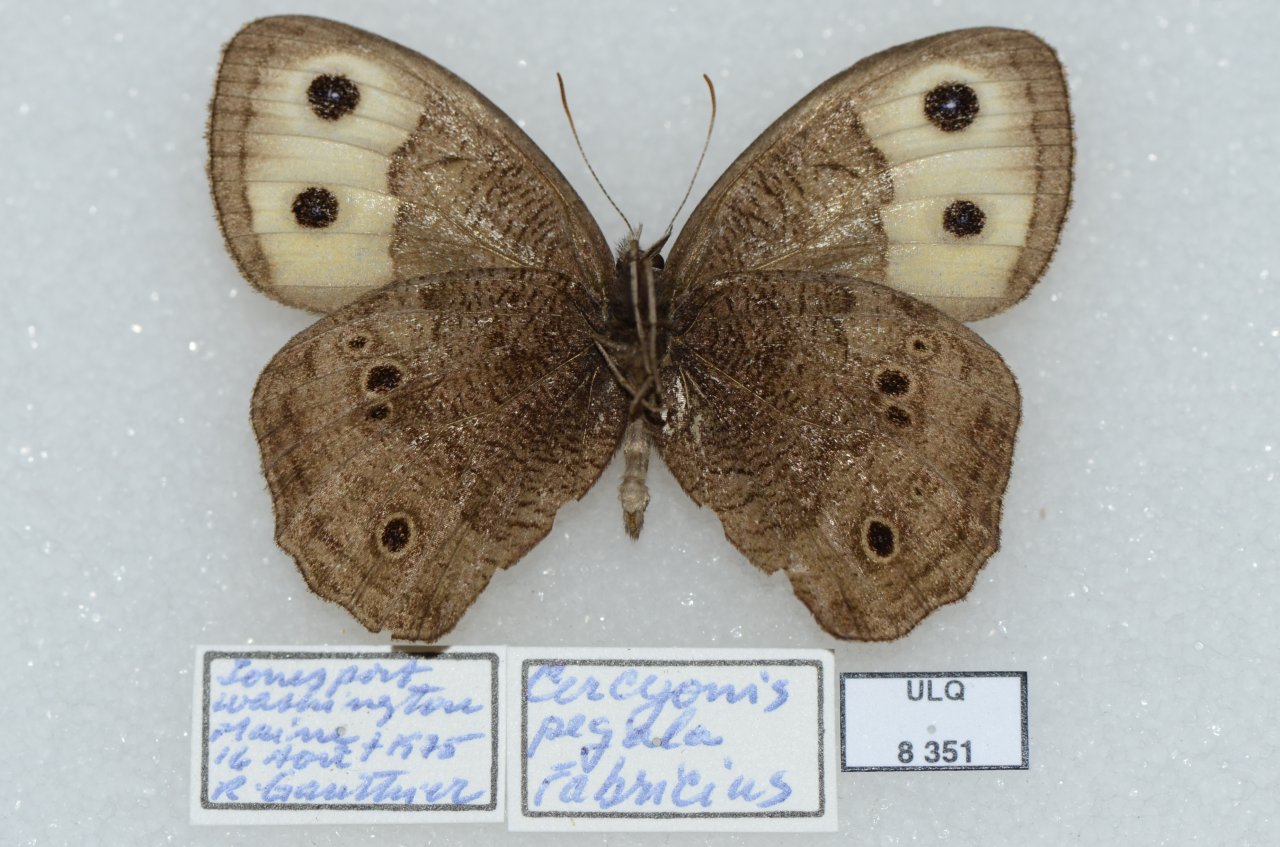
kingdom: Animalia
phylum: Arthropoda
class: Insecta
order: Lepidoptera
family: Nymphalidae
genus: Cercyonis
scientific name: Cercyonis pegala
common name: Common Wood-Nymph
